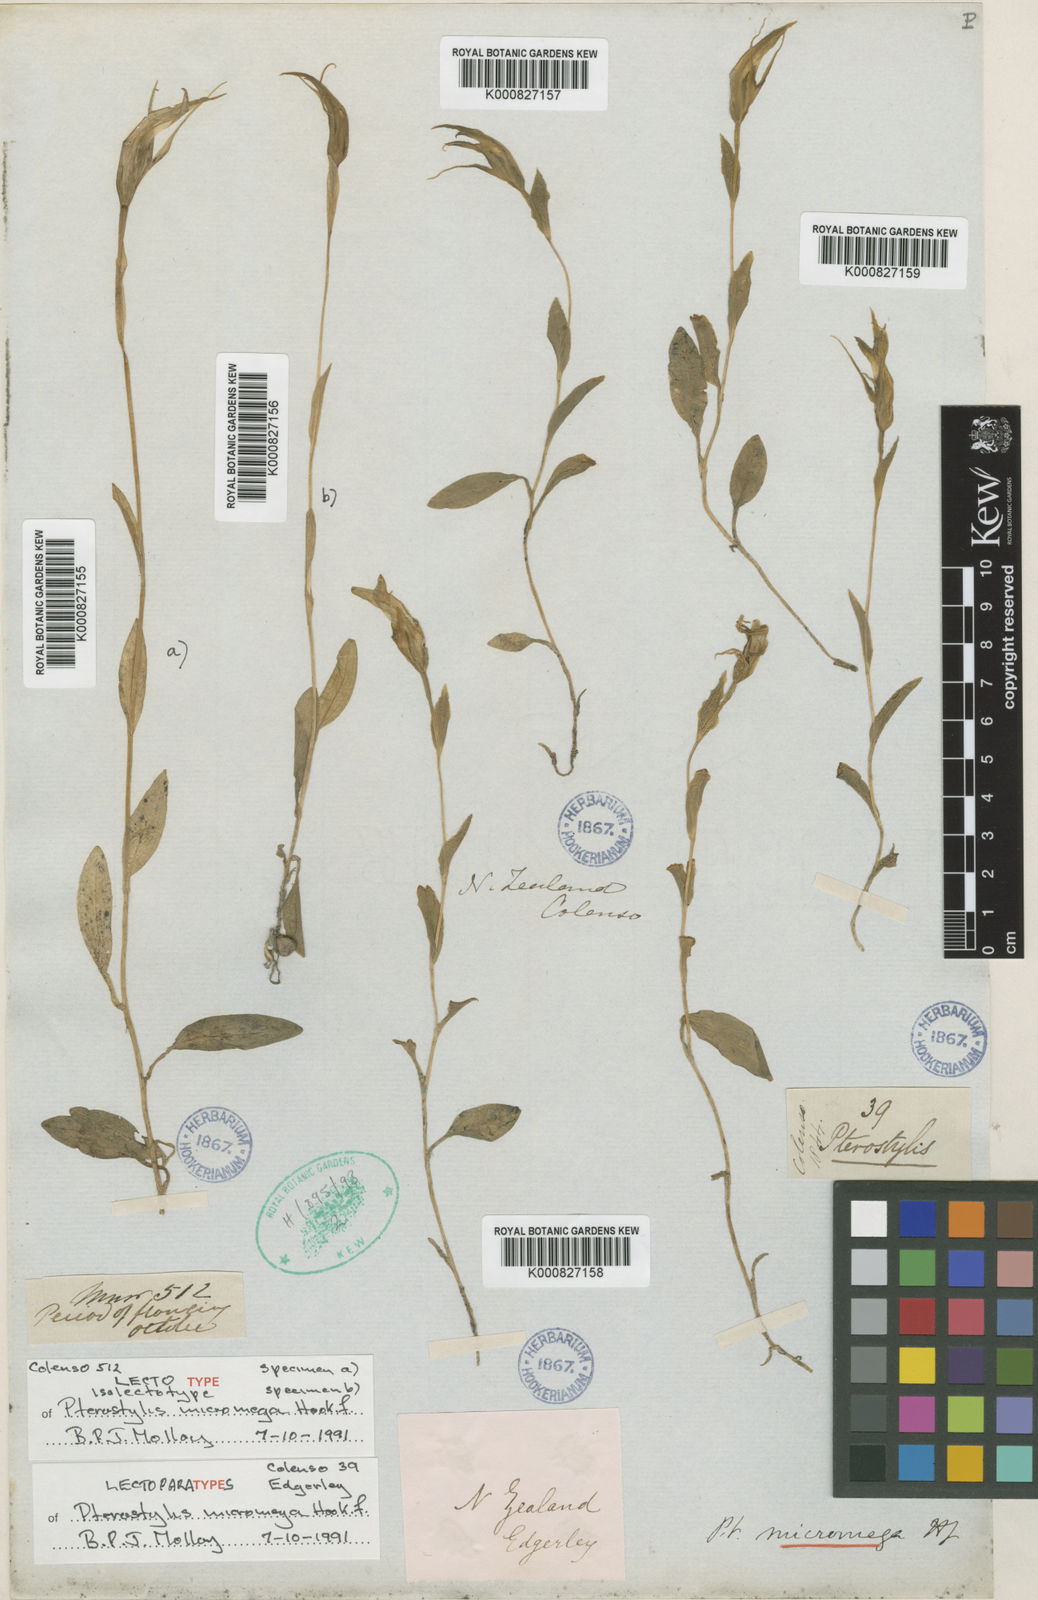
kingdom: Plantae
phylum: Tracheophyta
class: Liliopsida
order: Asparagales
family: Orchidaceae
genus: Pterostylis
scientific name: Pterostylis oliveri
